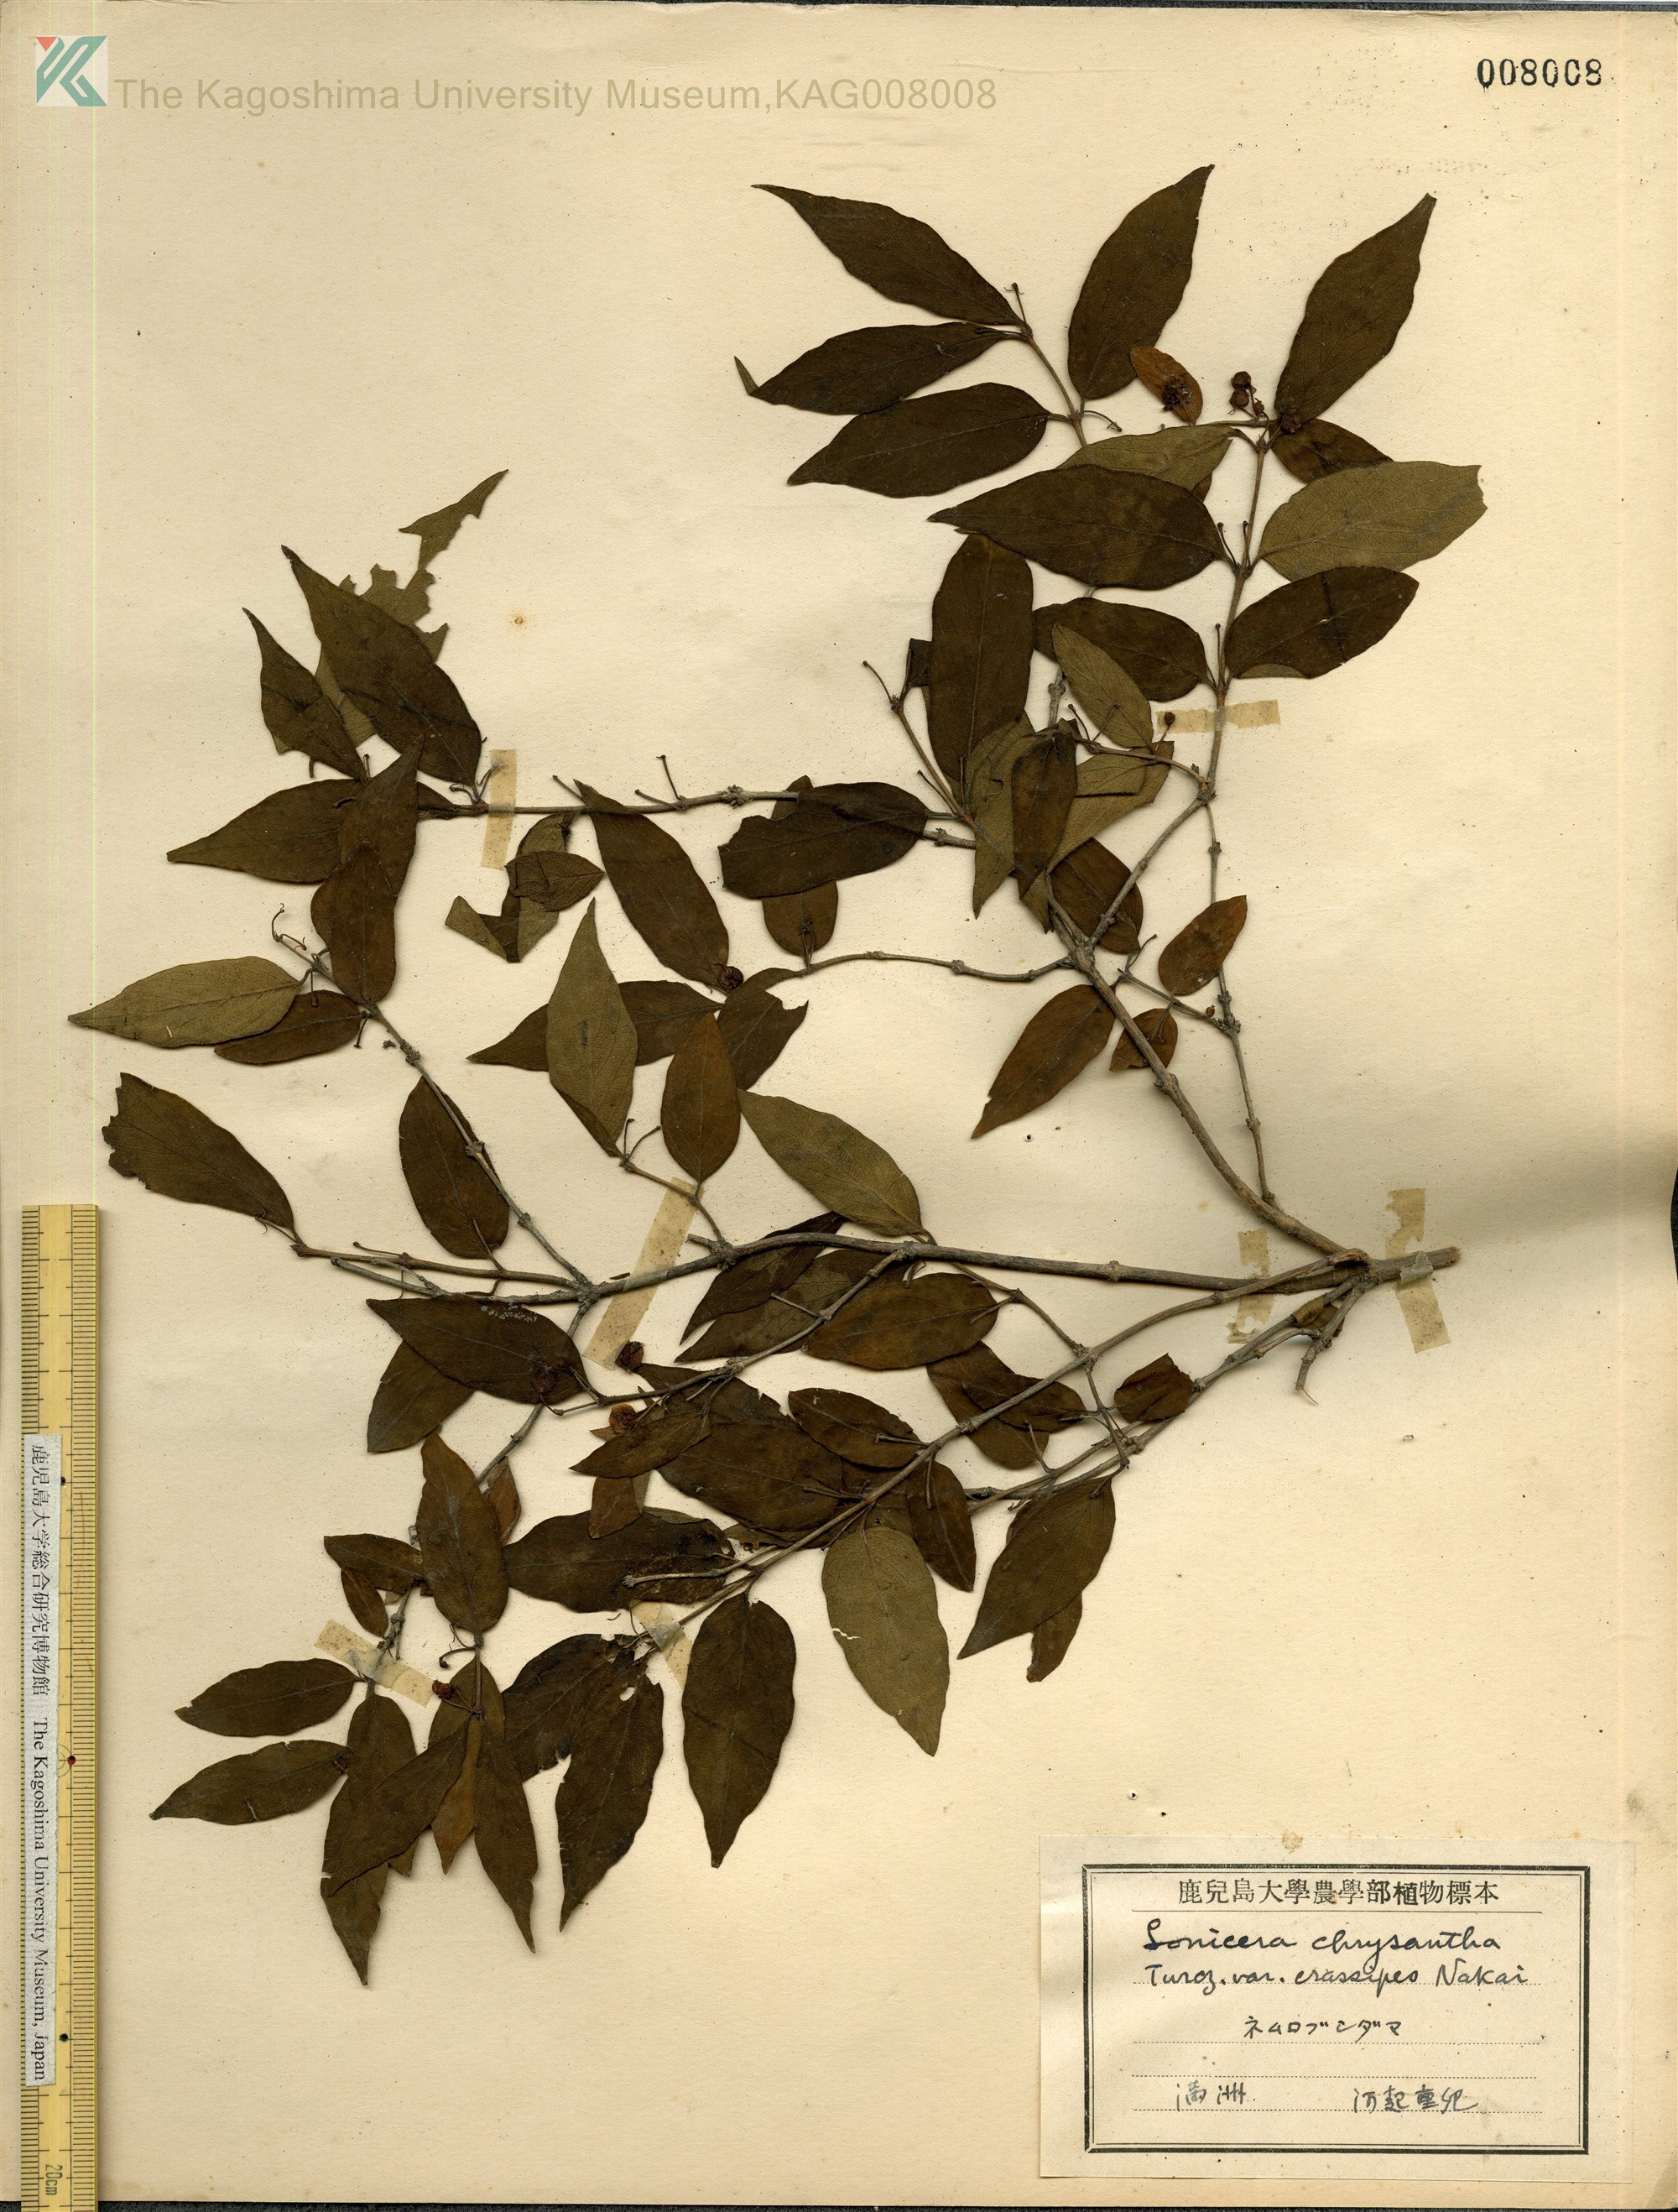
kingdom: Plantae
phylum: Tracheophyta
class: Magnoliopsida
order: Dipsacales
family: Caprifoliaceae
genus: Lonicera
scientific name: Lonicera chrysantha
